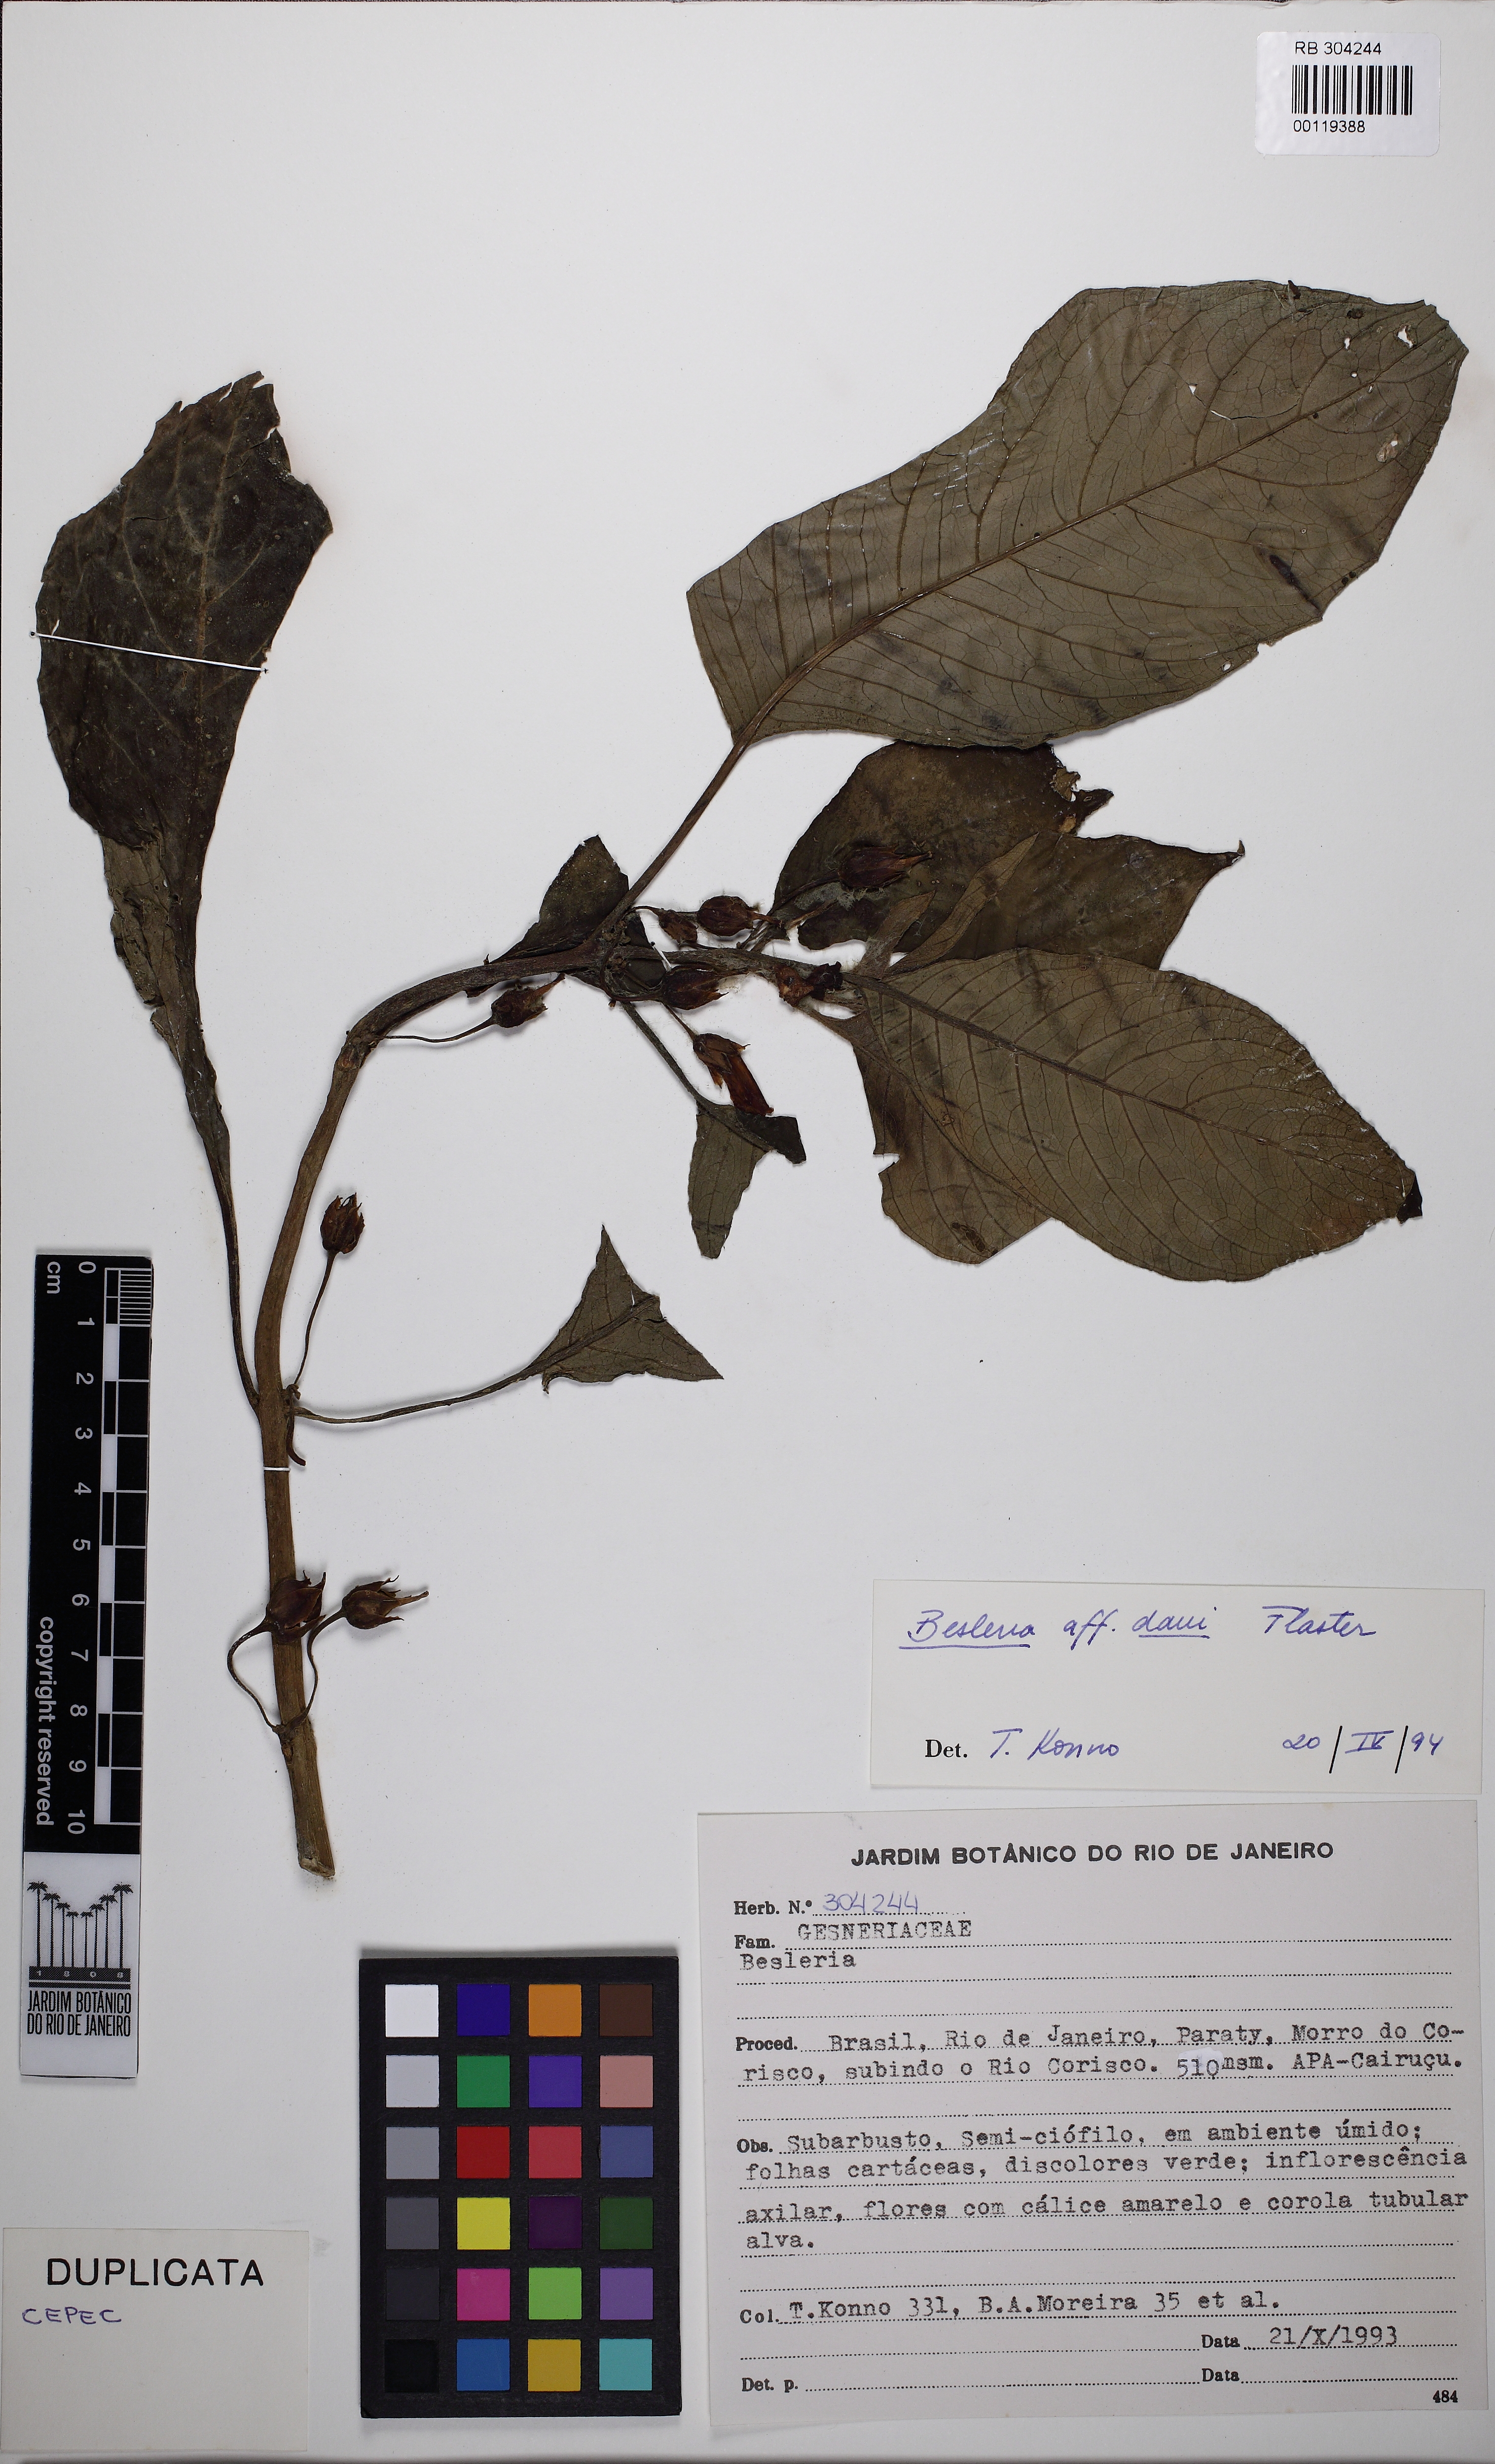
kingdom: Plantae
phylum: Tracheophyta
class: Magnoliopsida
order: Lamiales
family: Gesneriaceae
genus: Besleria
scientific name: Besleria longimucronata
